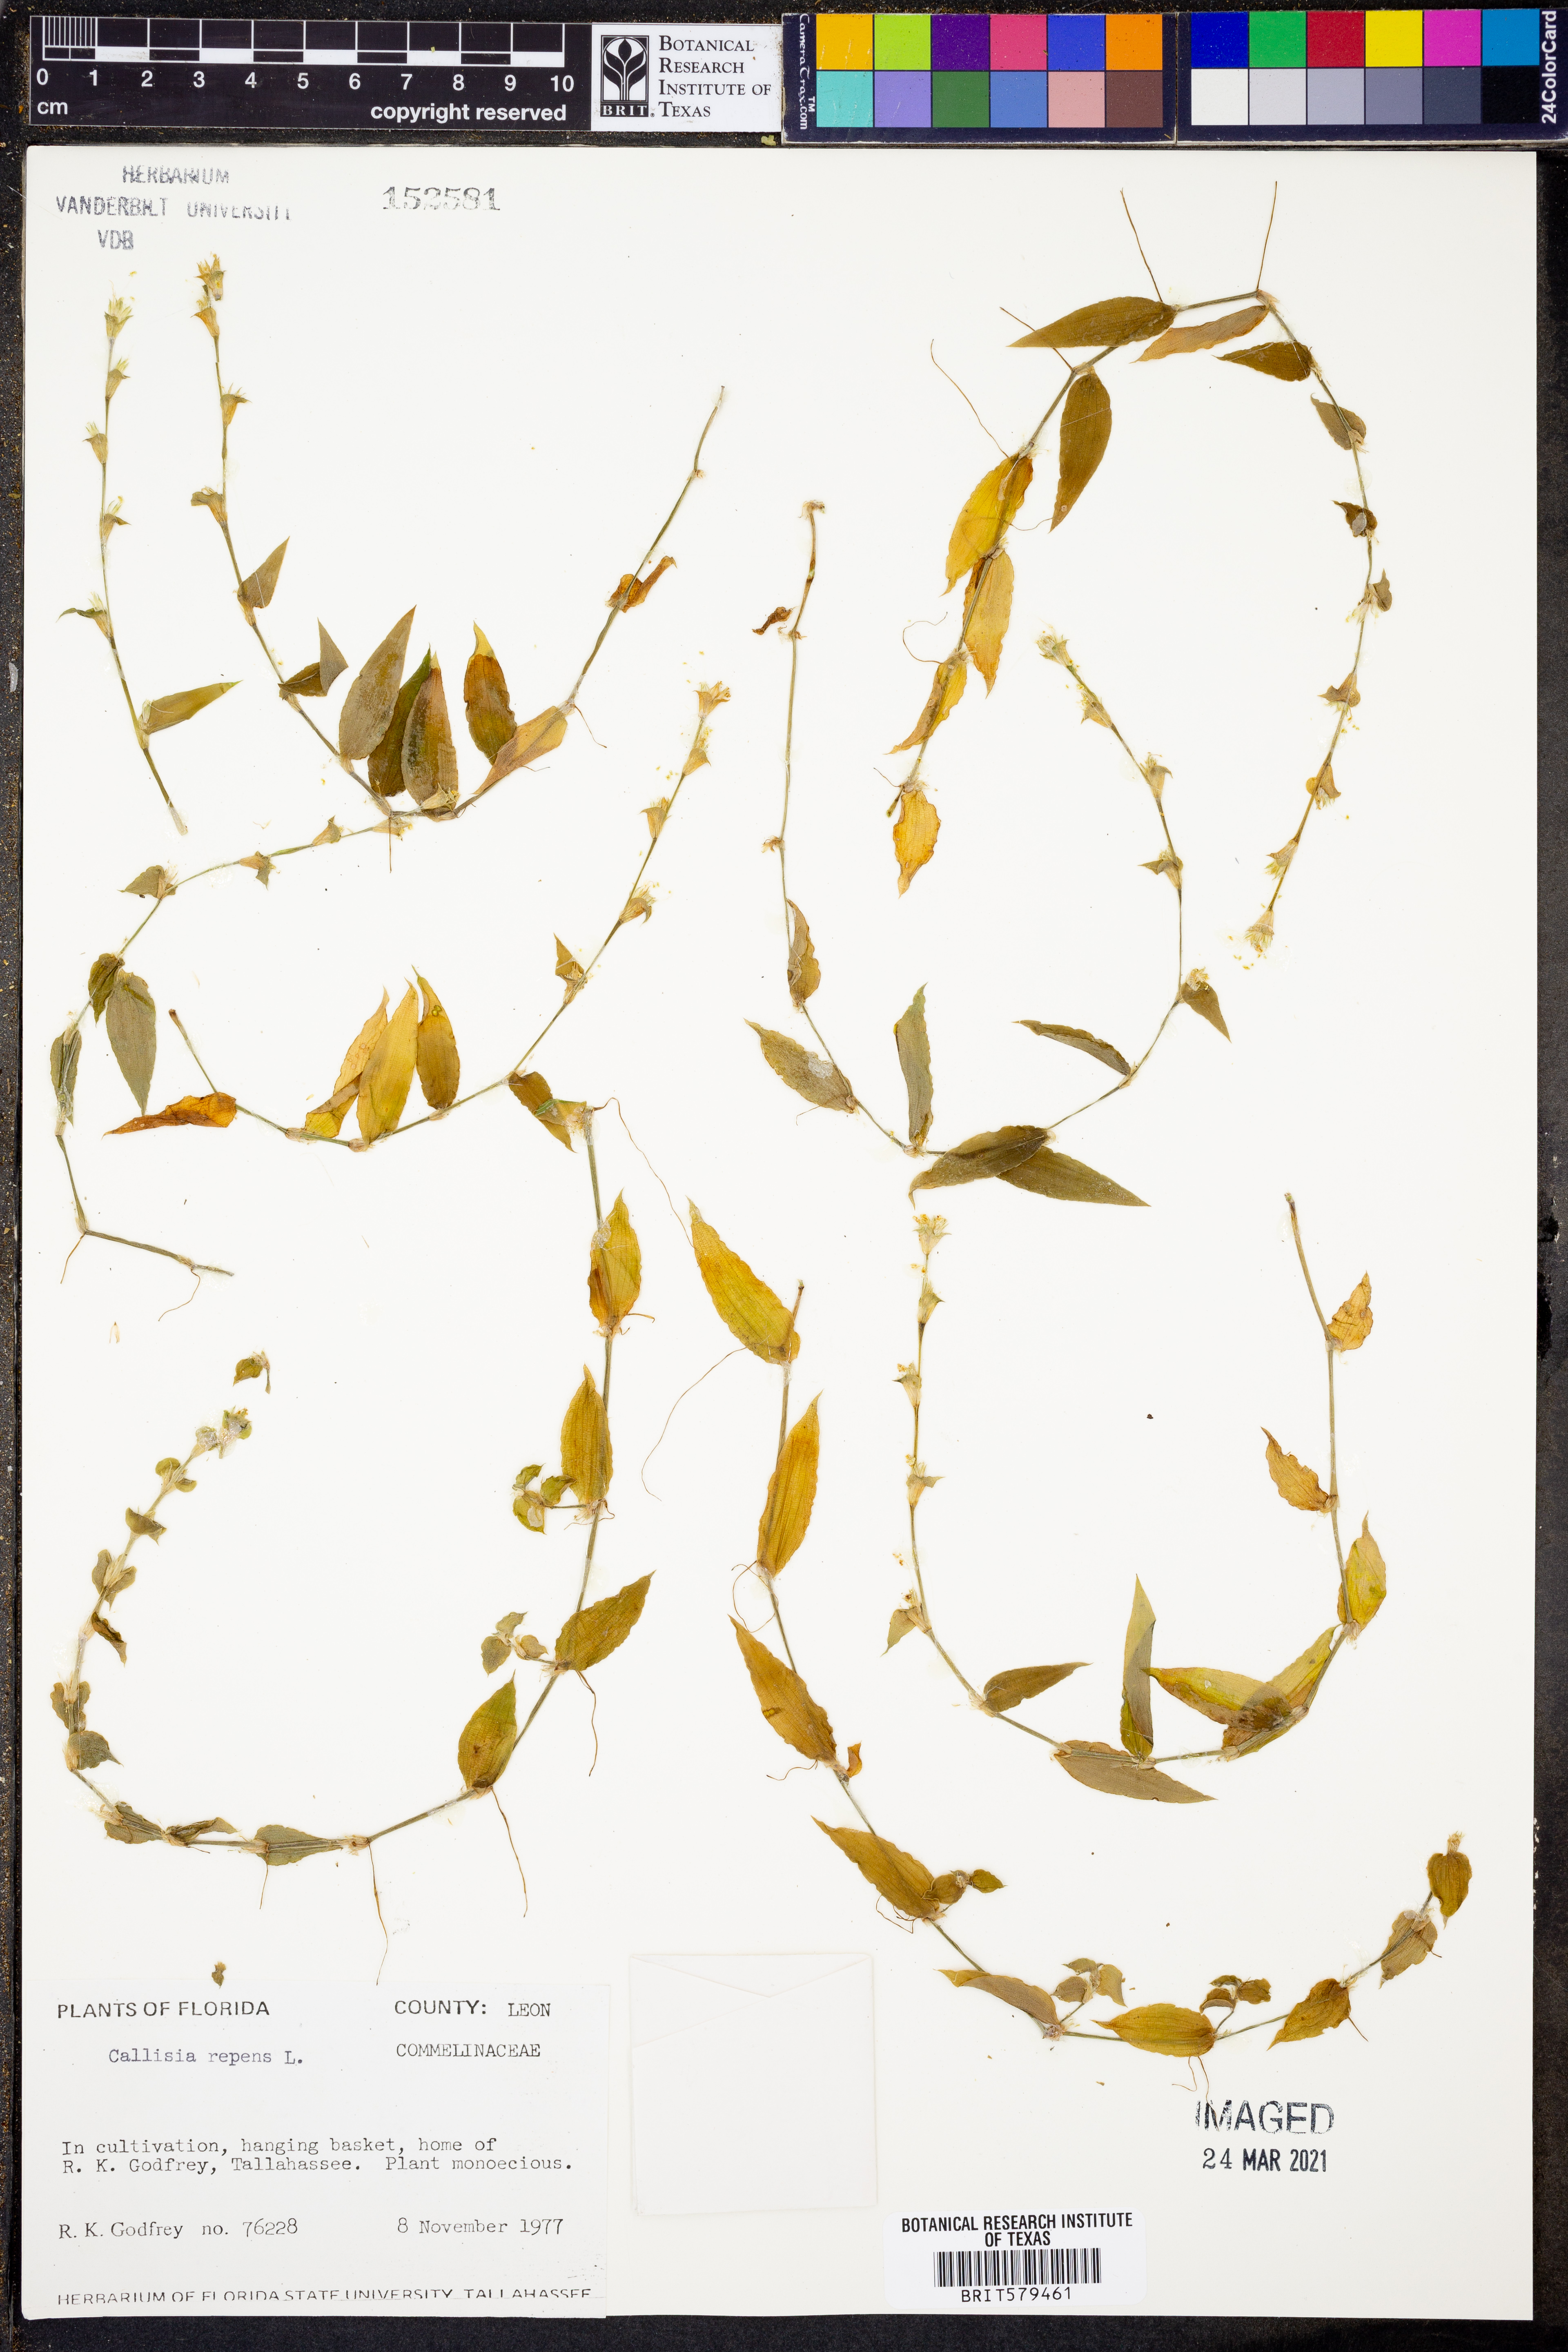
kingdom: Plantae
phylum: Tracheophyta
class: Liliopsida
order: Commelinales
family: Commelinaceae
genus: Callisia
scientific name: Callisia repens
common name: Creeping inchplant
